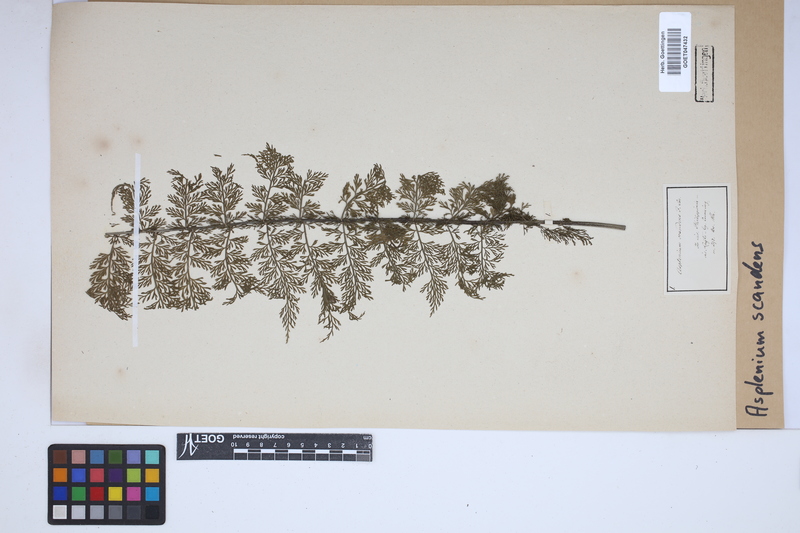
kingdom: Plantae
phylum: Tracheophyta
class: Polypodiopsida
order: Polypodiales
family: Aspleniaceae
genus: Asplenium
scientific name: Asplenium scandens
